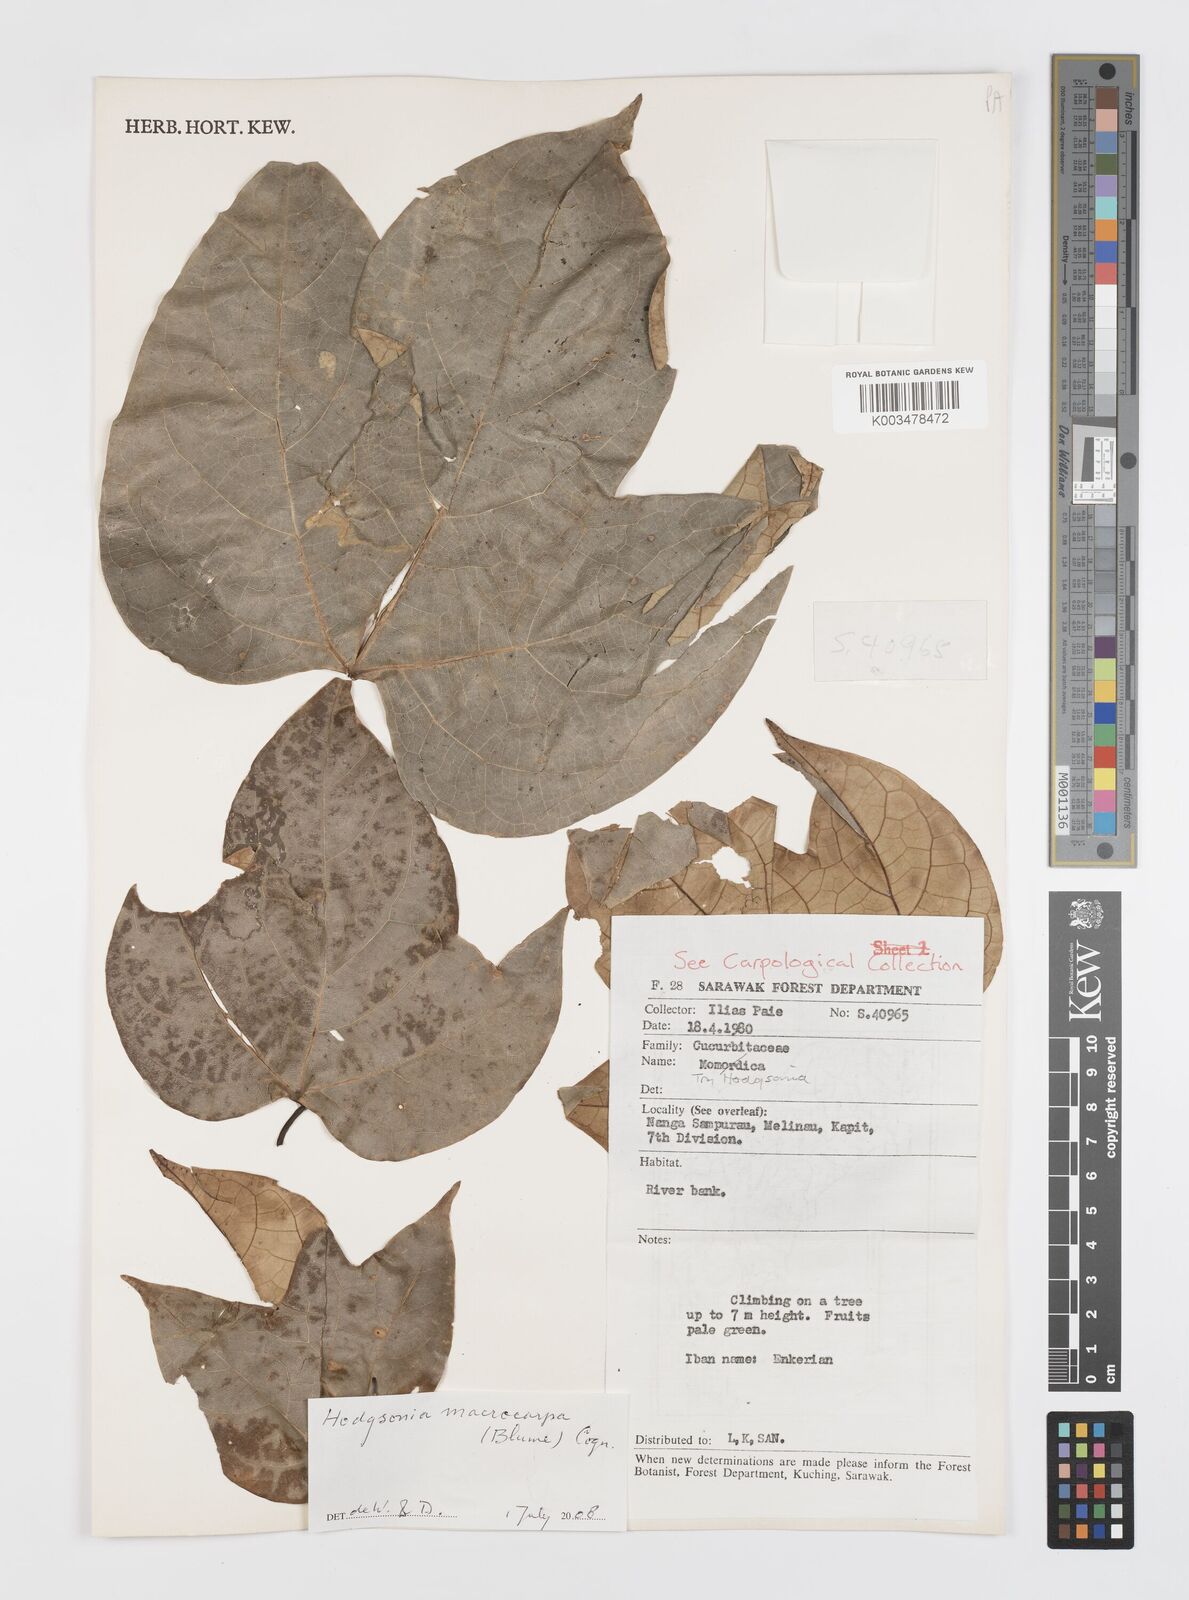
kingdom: Plantae
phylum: Tracheophyta
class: Magnoliopsida
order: Cucurbitales
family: Cucurbitaceae
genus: Hodgsonia
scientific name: Hodgsonia macrocarpa
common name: Chinese lardfruit
